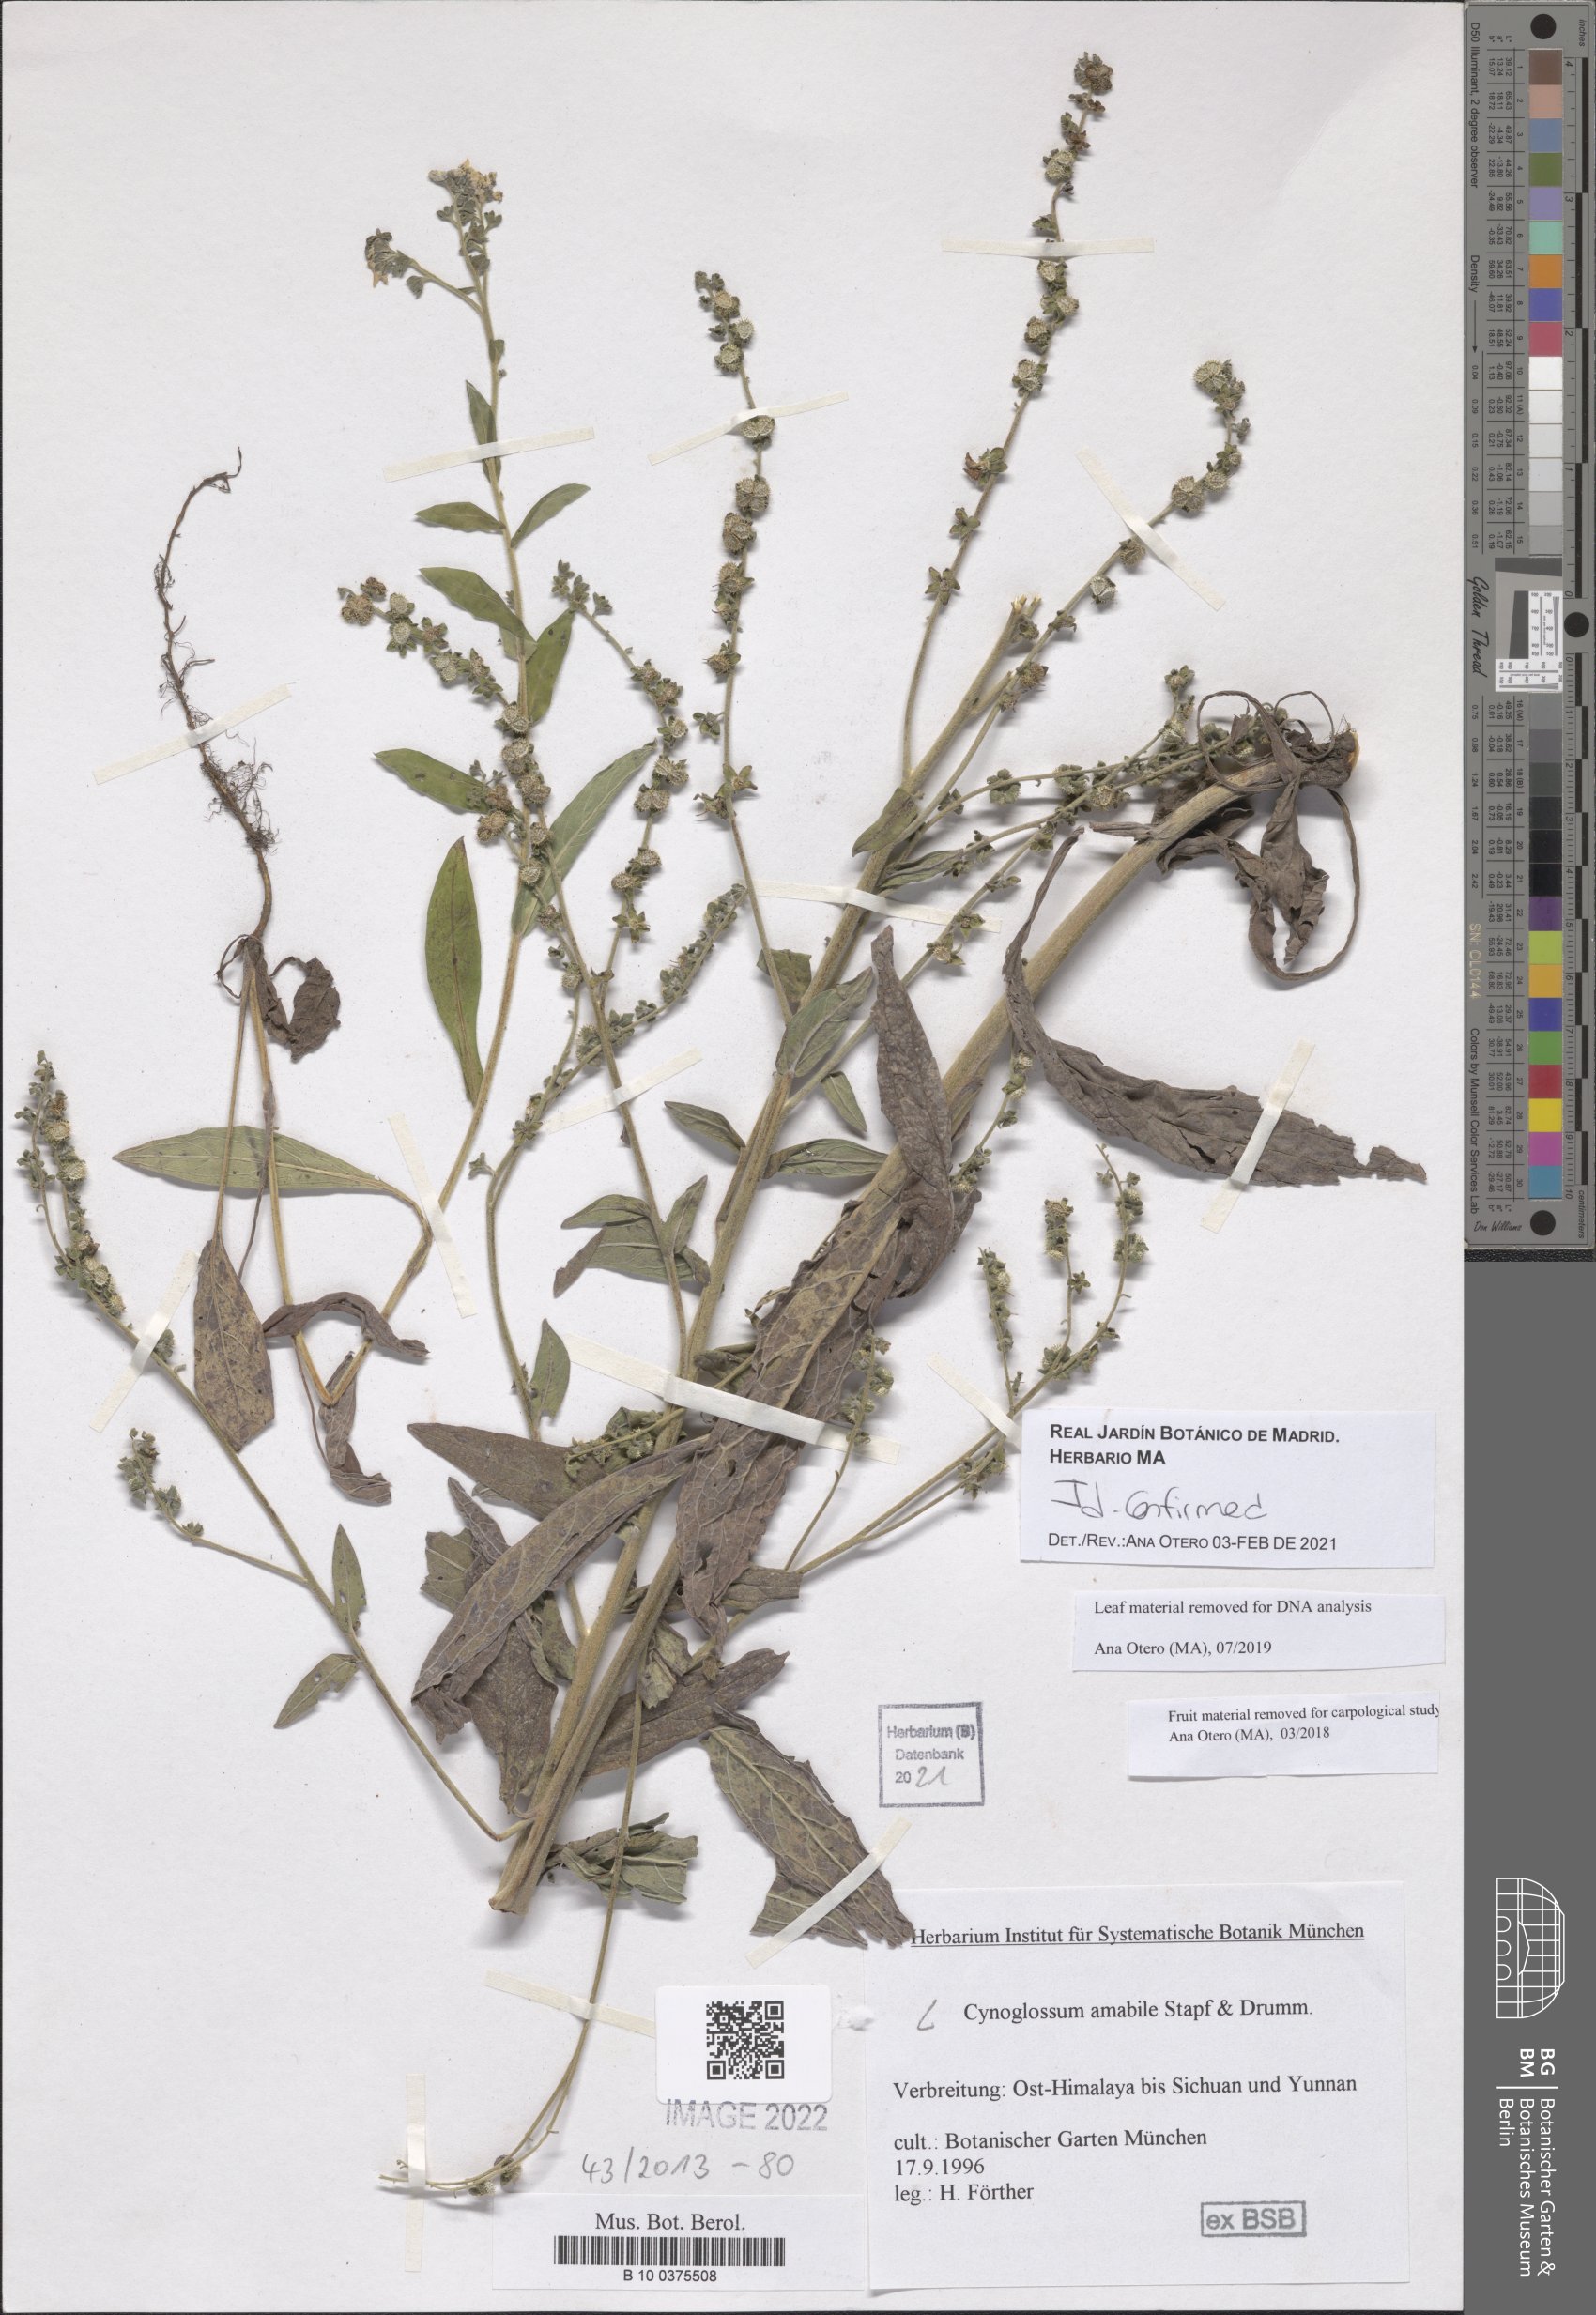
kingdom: Plantae
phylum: Tracheophyta
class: Magnoliopsida
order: Boraginales
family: Boraginaceae
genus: Cynoglossum
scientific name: Cynoglossum amabile
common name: Chinese hound's tongue
